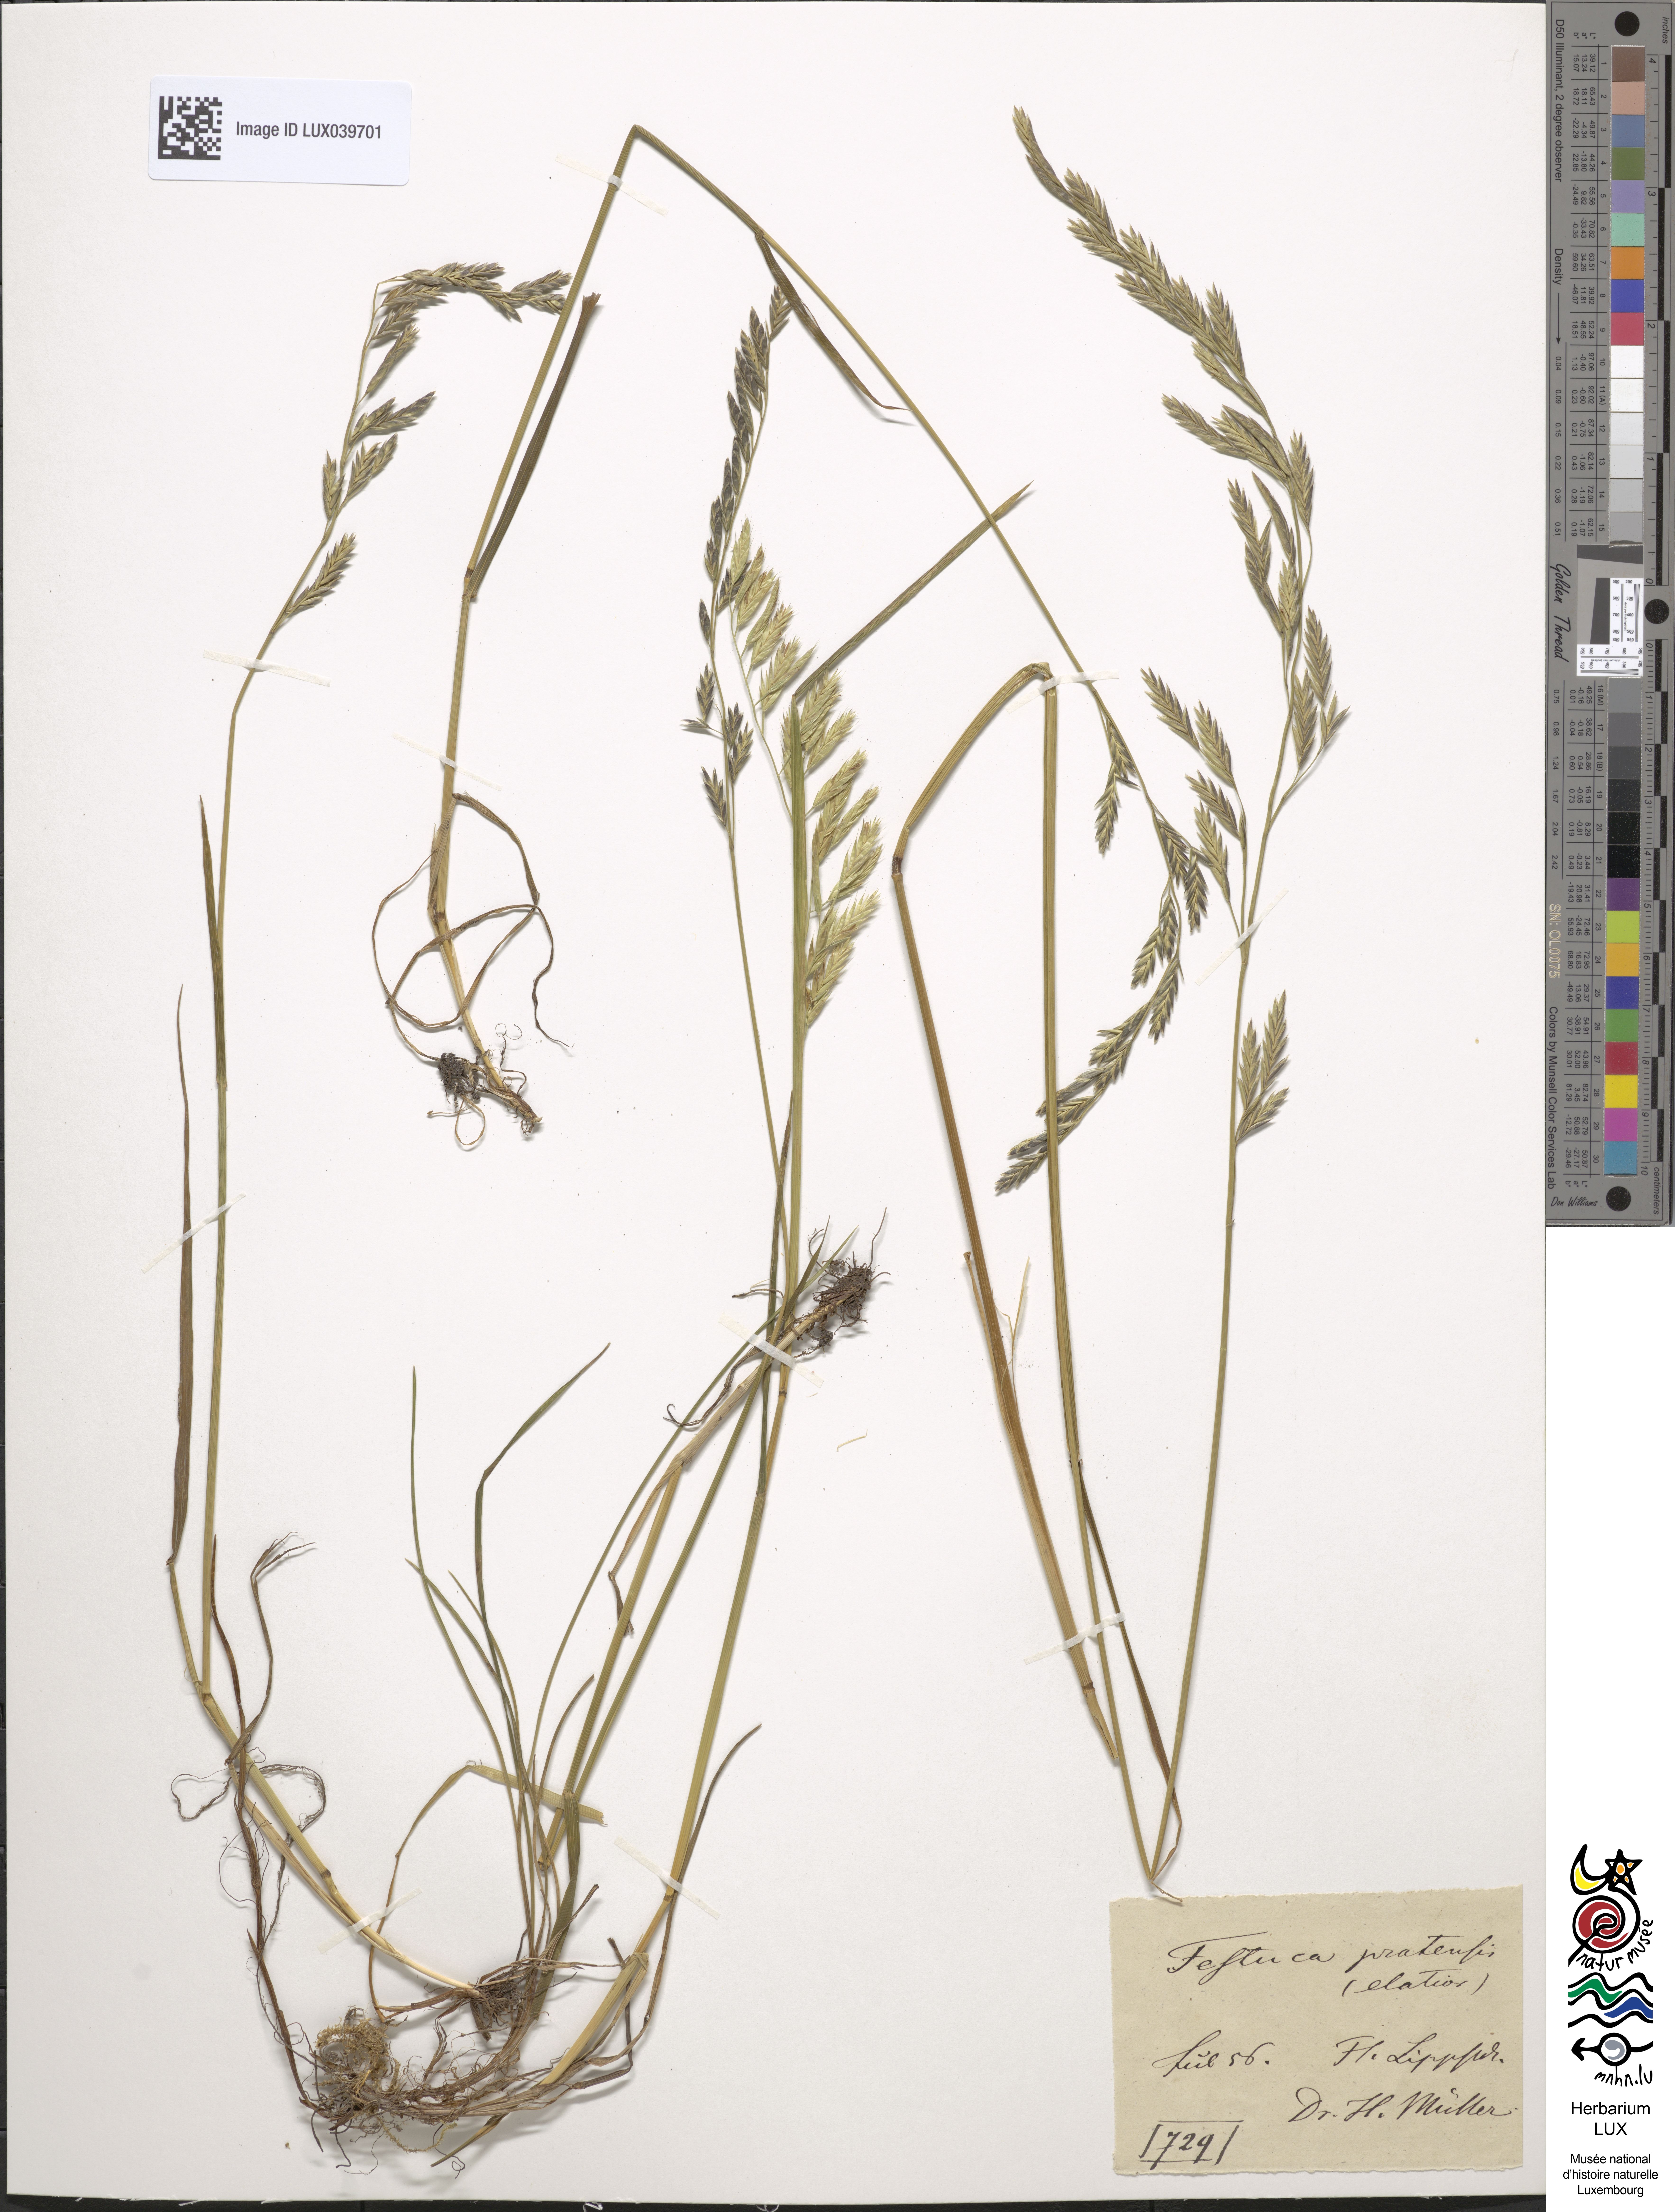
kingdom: Plantae
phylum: Tracheophyta
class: Liliopsida
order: Poales
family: Poaceae
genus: Lolium
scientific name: Lolium pratense
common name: Dover grass
